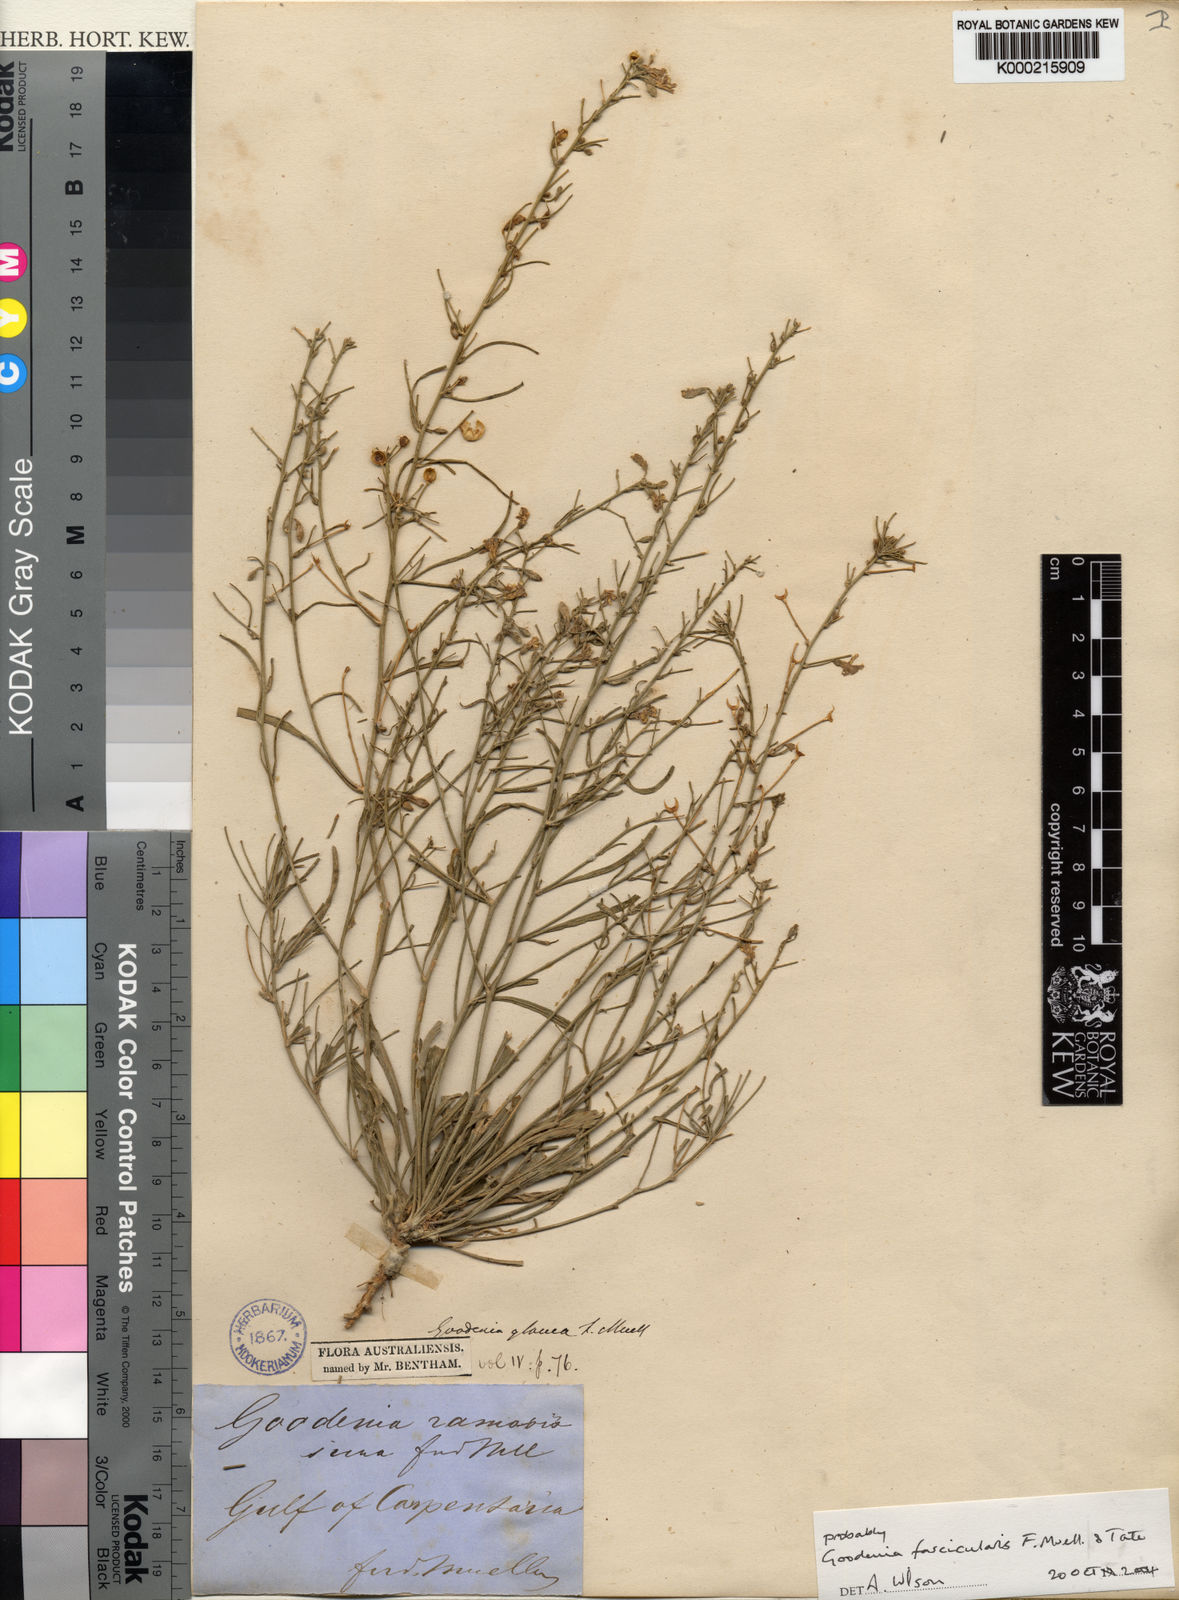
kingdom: Plantae
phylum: Tracheophyta
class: Magnoliopsida
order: Asterales
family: Goodeniaceae
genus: Goodenia
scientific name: Goodenia fascicularis
